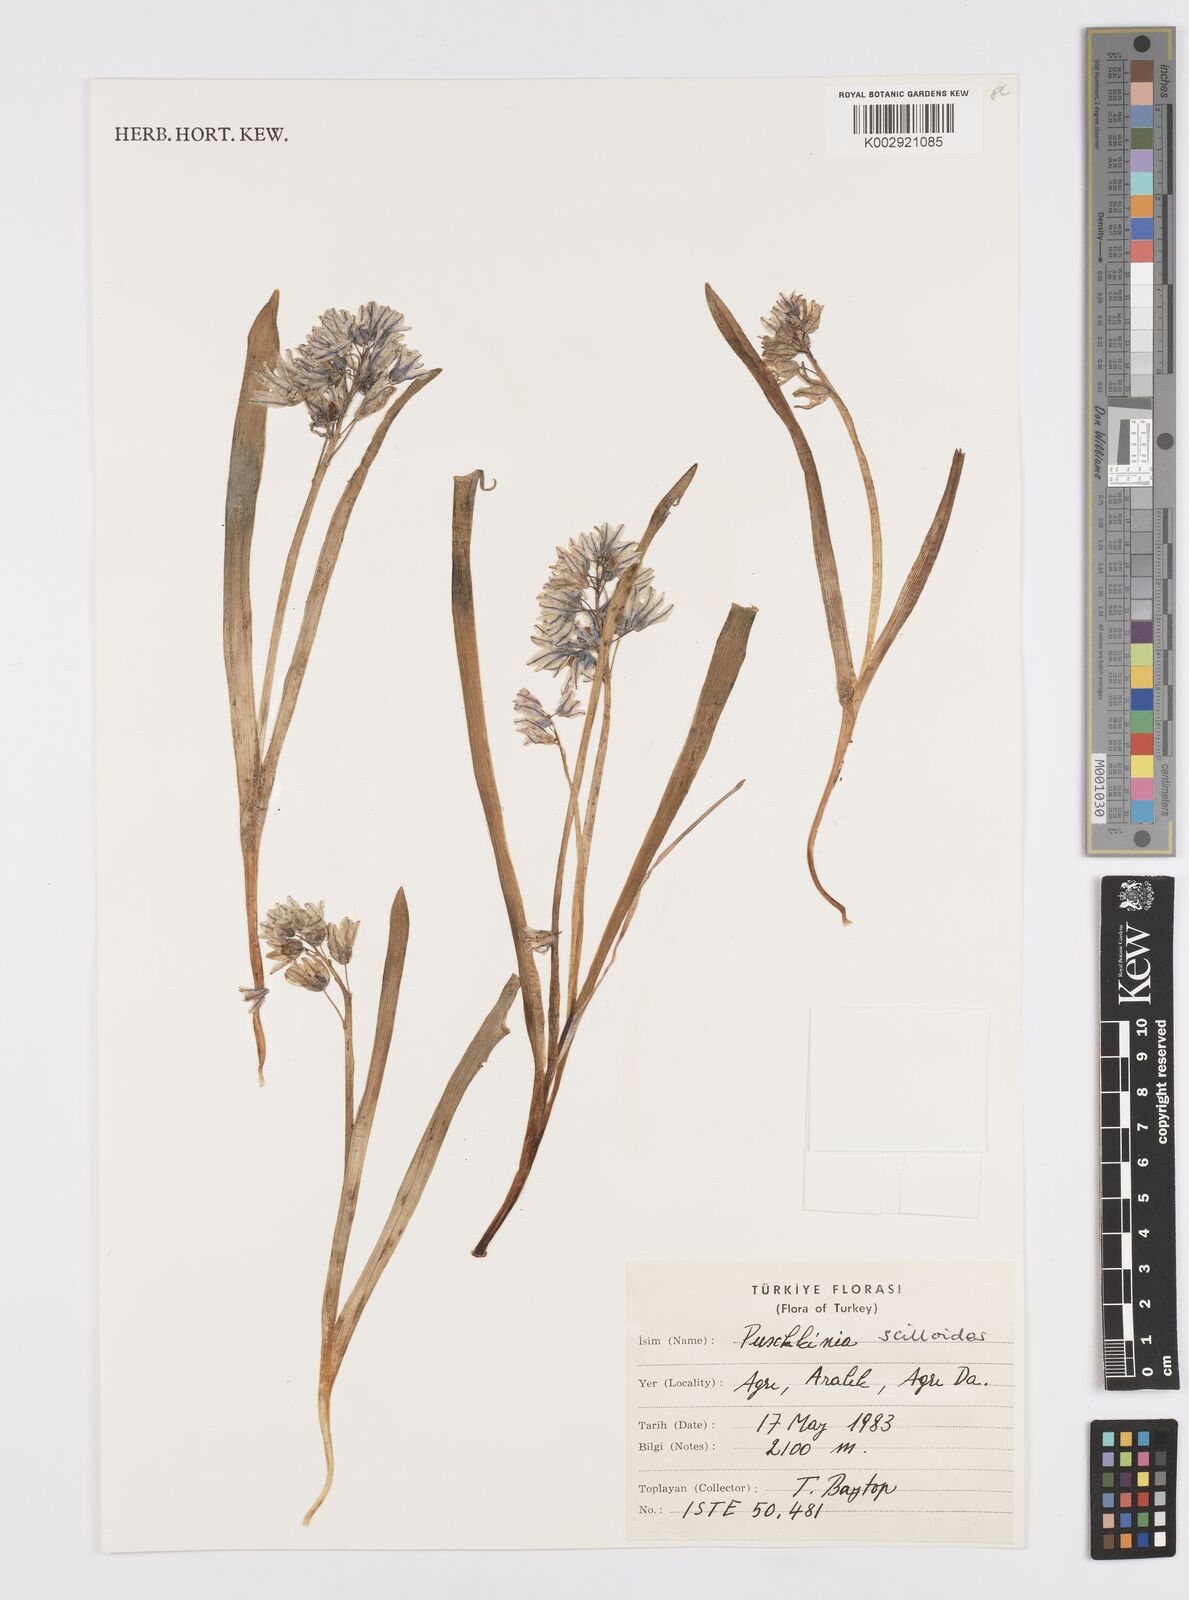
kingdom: Plantae
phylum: Tracheophyta
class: Liliopsida
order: Asparagales
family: Asparagaceae
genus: Puschkinia
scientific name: Puschkinia scilloides
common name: Striped squill
